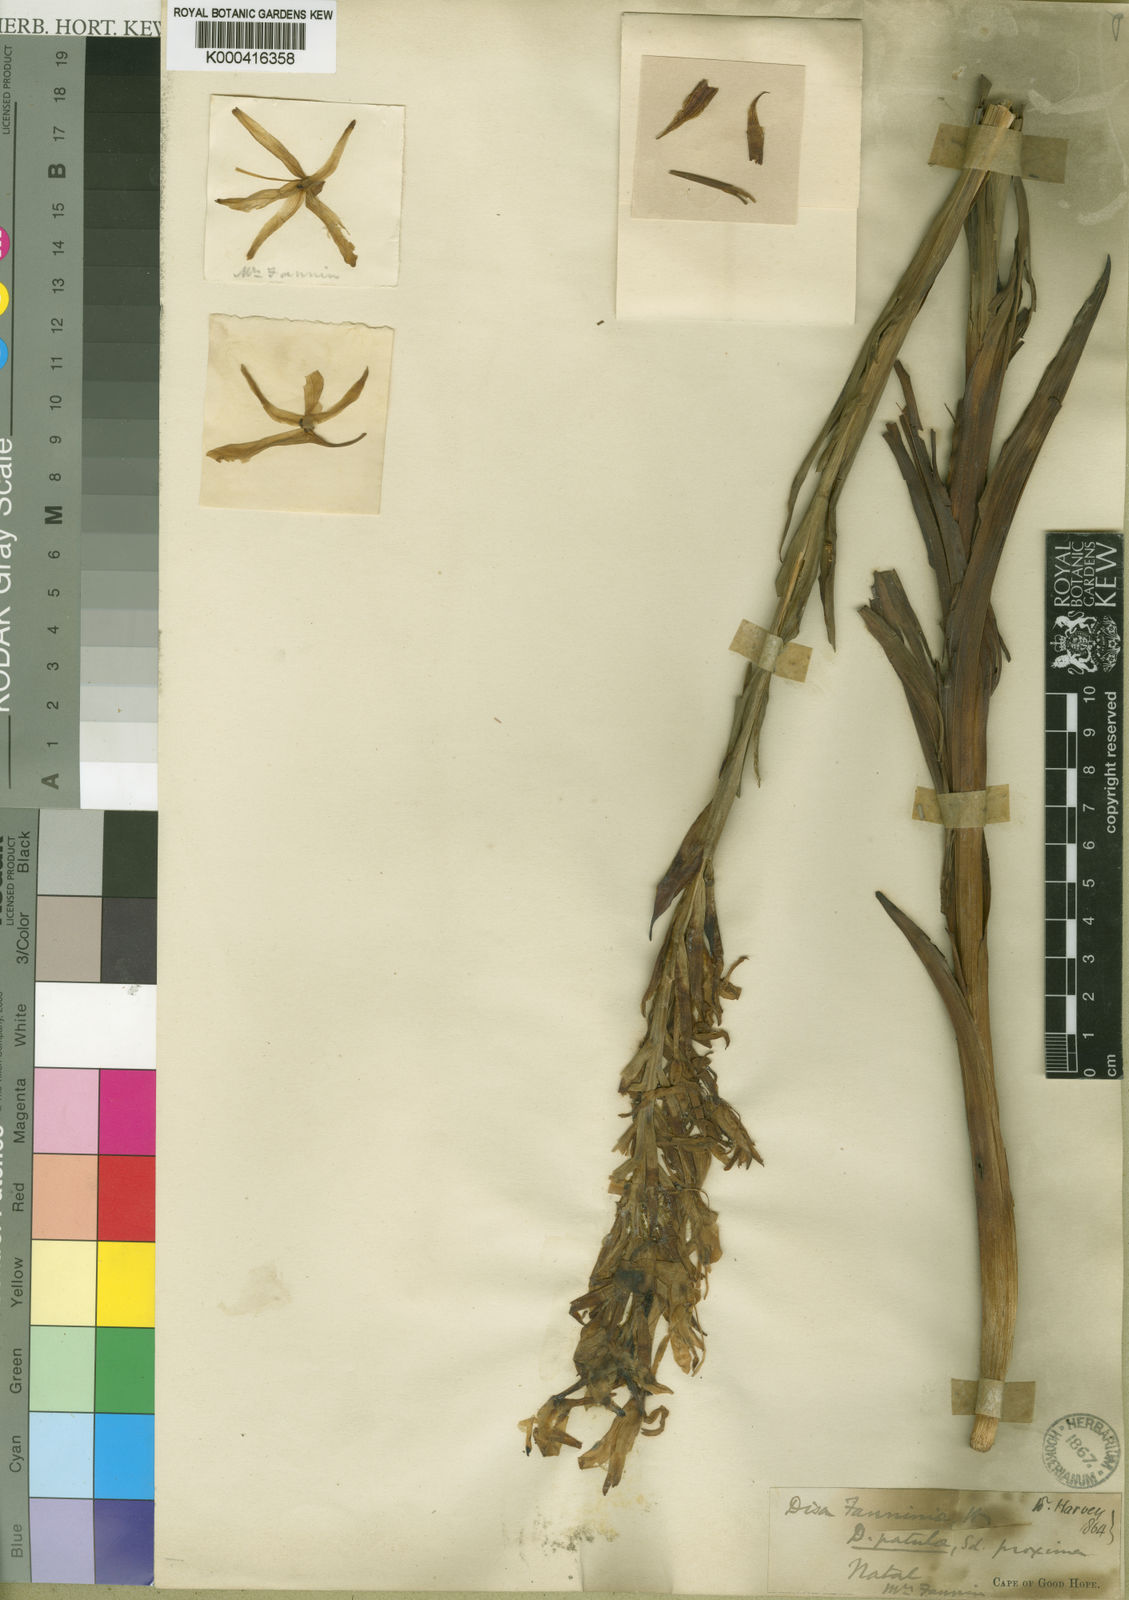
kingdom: Plantae
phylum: Tracheophyta
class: Liliopsida
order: Asparagales
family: Orchidaceae
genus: Disa
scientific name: Disa nervosa
